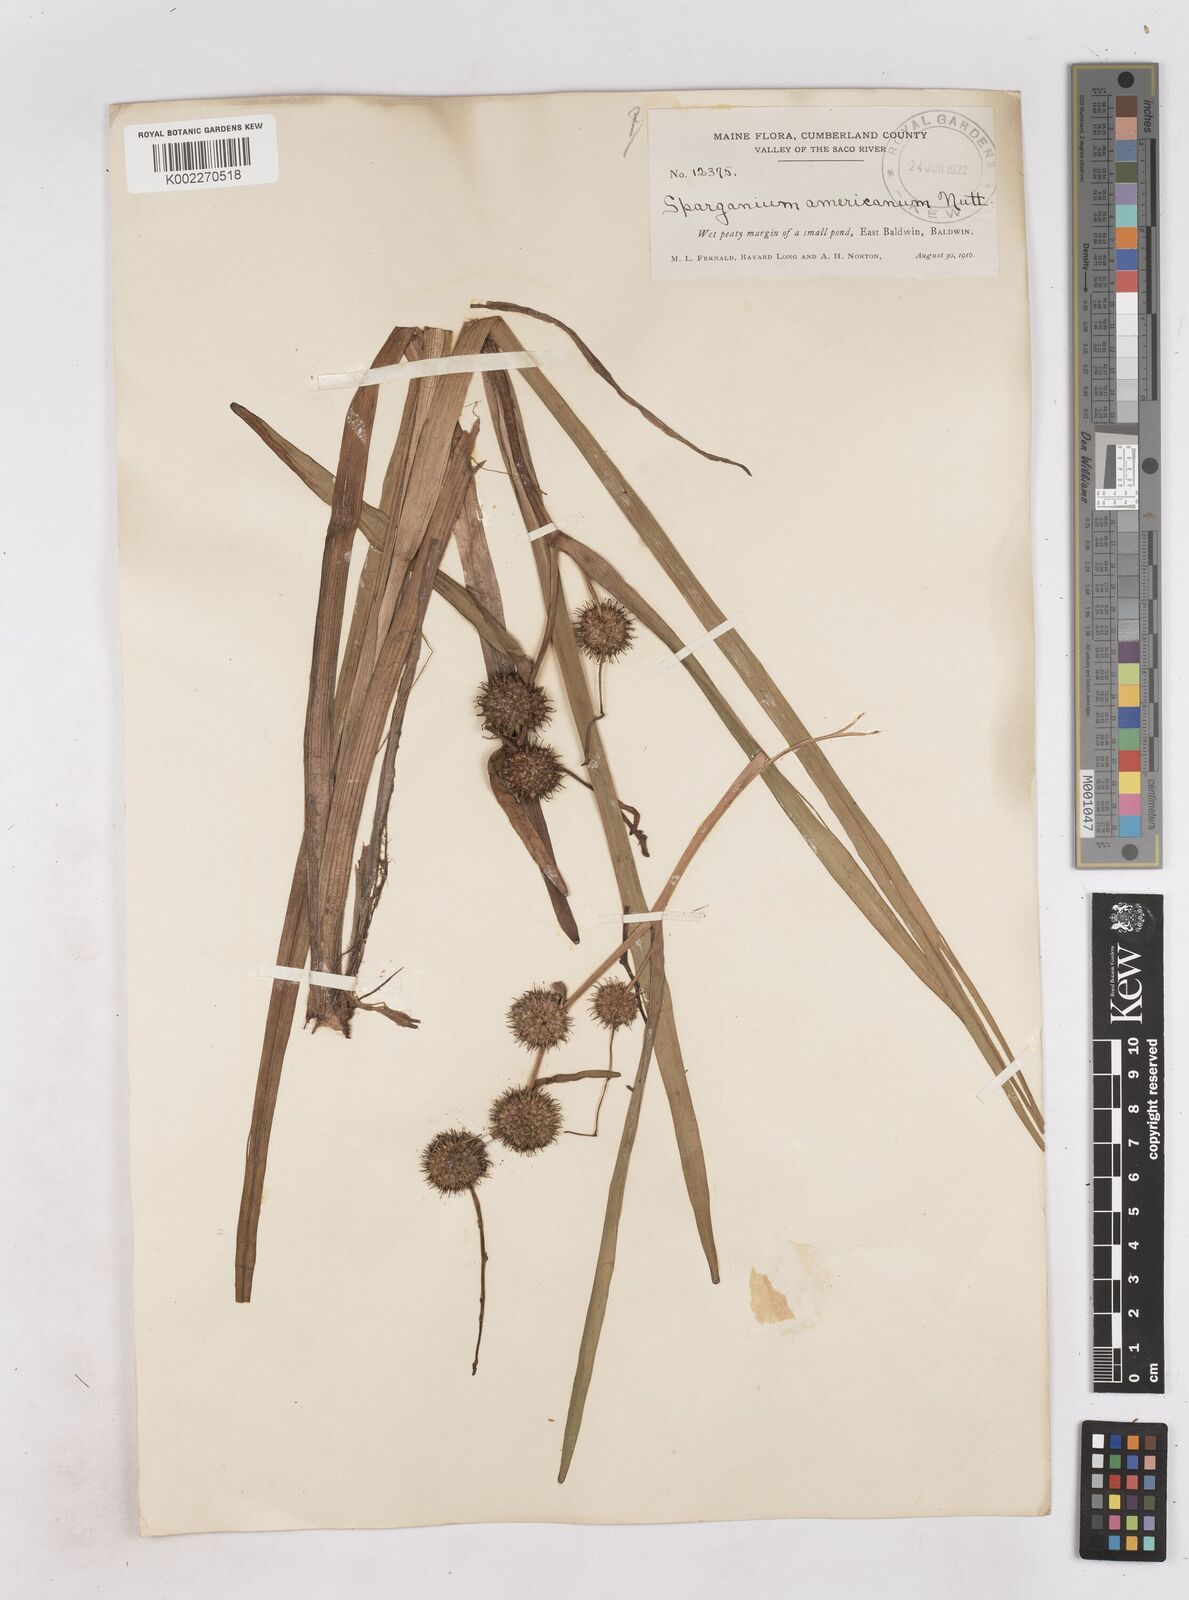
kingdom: Plantae
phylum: Tracheophyta
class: Liliopsida
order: Poales
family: Typhaceae
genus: Sparganium
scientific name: Sparganium americanum
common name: American burreed
